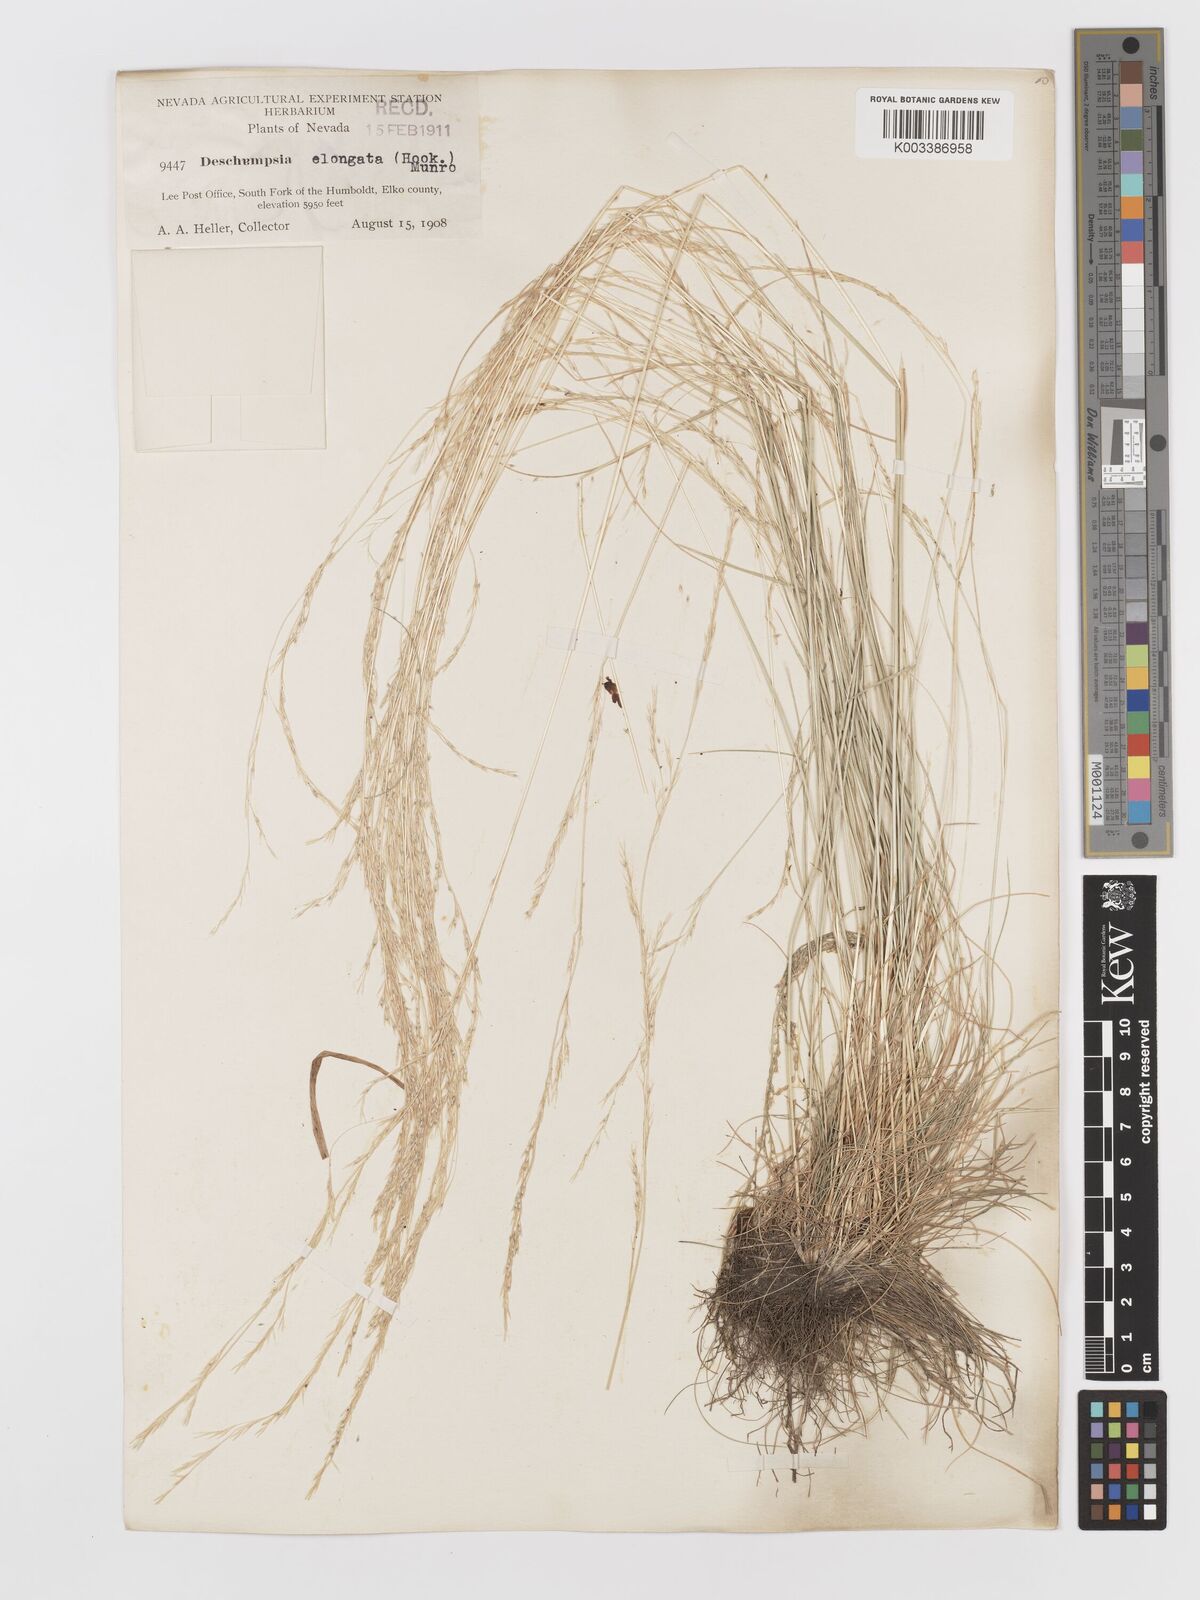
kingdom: Plantae
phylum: Tracheophyta
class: Liliopsida
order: Poales
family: Poaceae
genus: Deschampsia
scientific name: Deschampsia elongata
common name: Slender hairgrass
